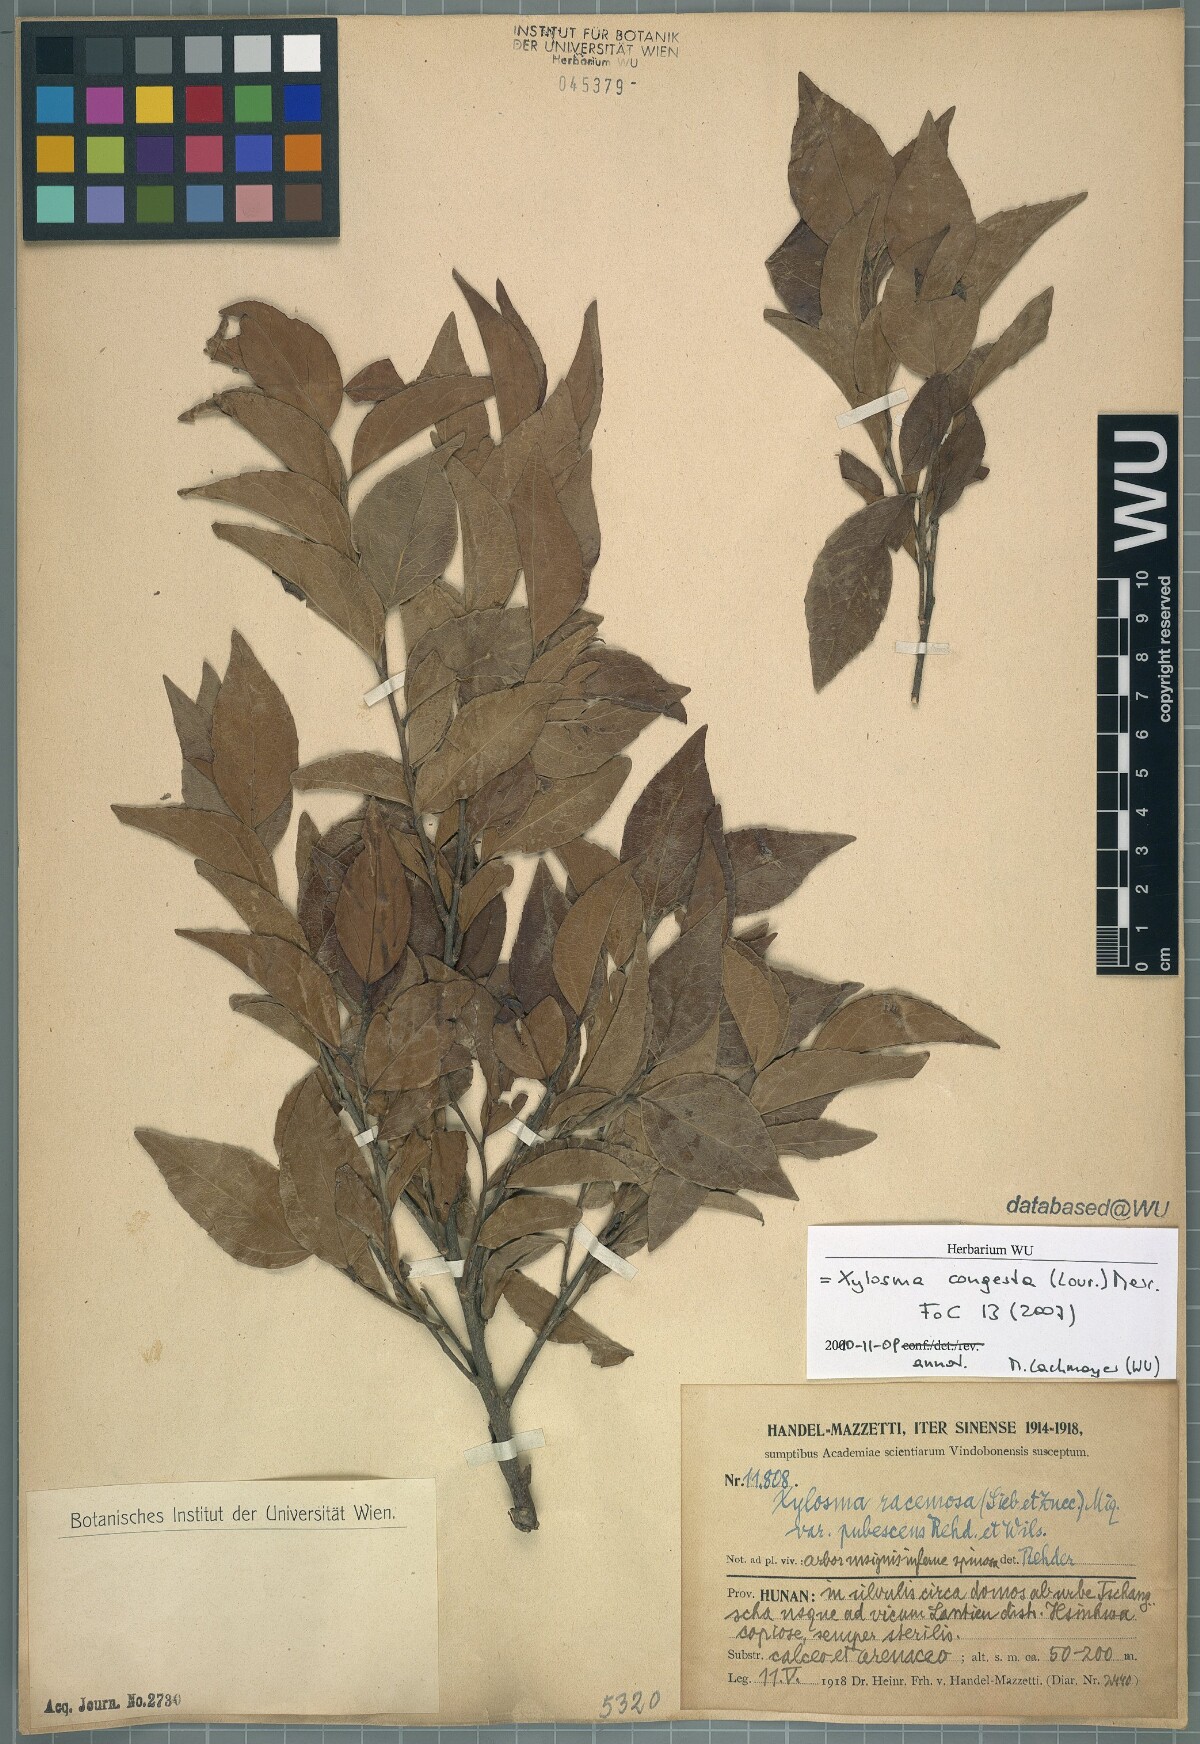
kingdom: Plantae
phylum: Tracheophyta
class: Magnoliopsida
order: Malpighiales
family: Salicaceae
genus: Xylosma
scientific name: Xylosma racemosum
